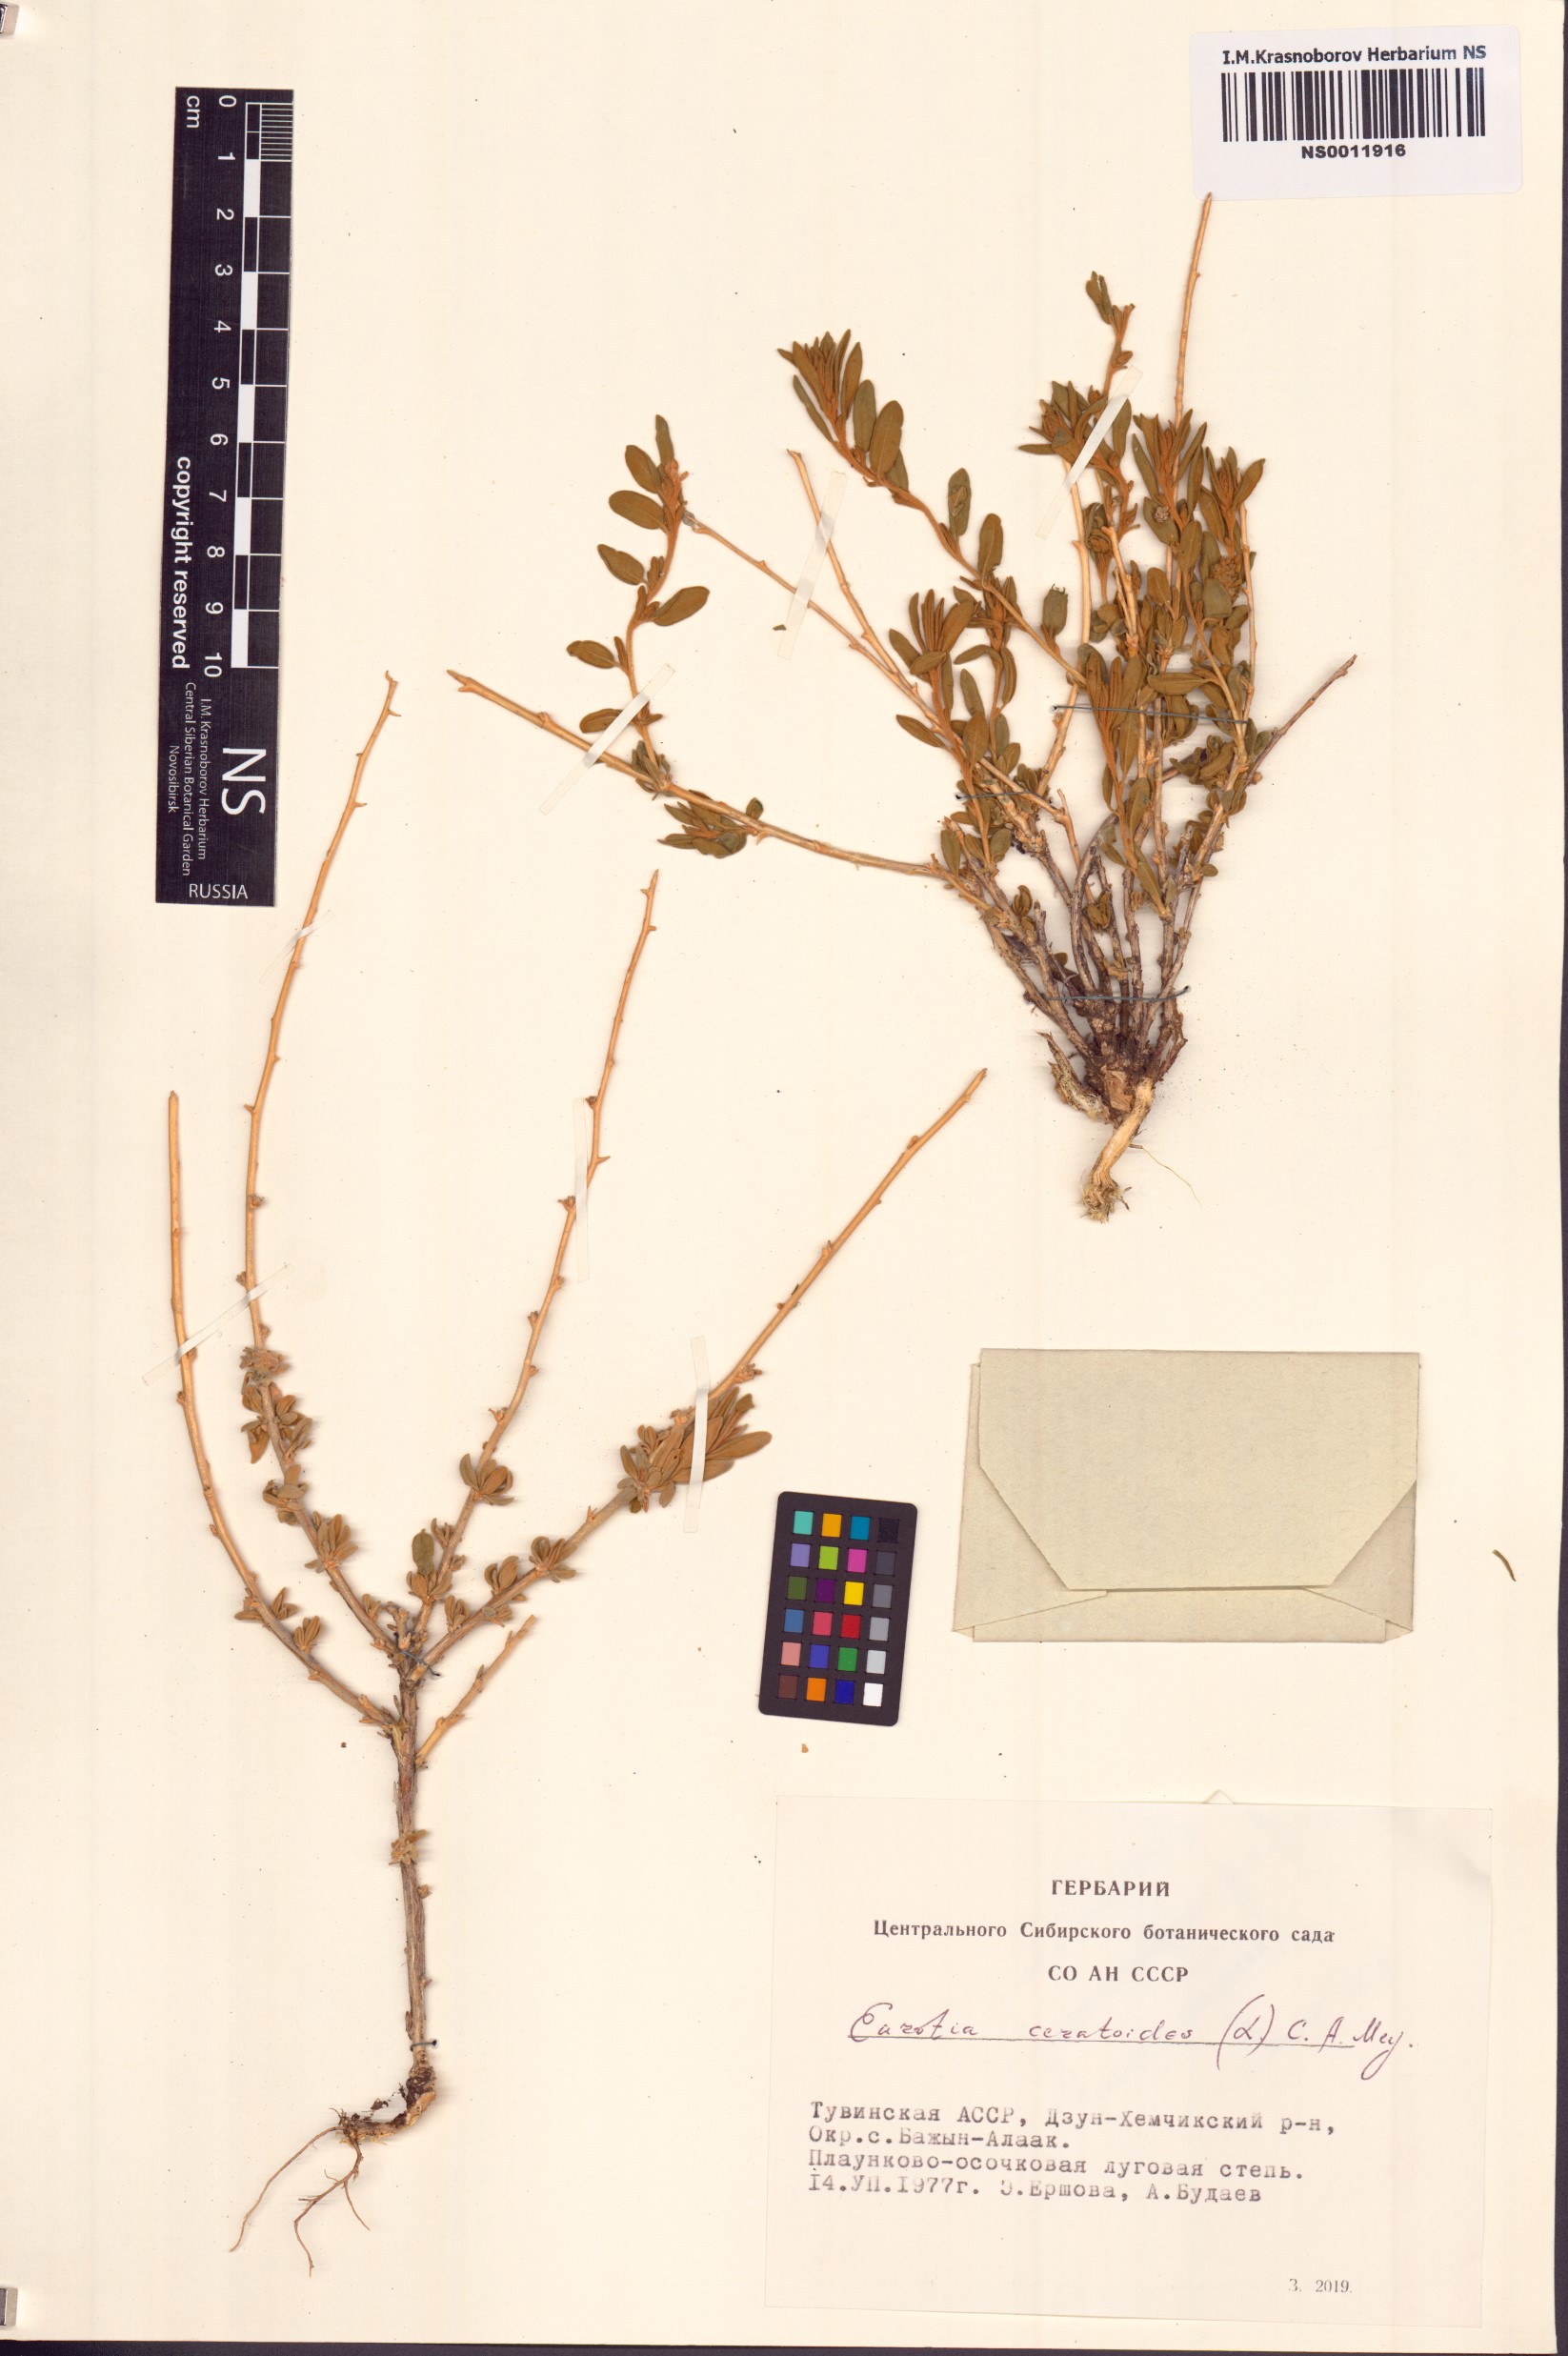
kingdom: Plantae
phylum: Tracheophyta
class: Magnoliopsida
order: Caryophyllales
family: Amaranthaceae
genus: Krascheninnikovia
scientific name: Krascheninnikovia ceratoides
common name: Pamirian winterfat
